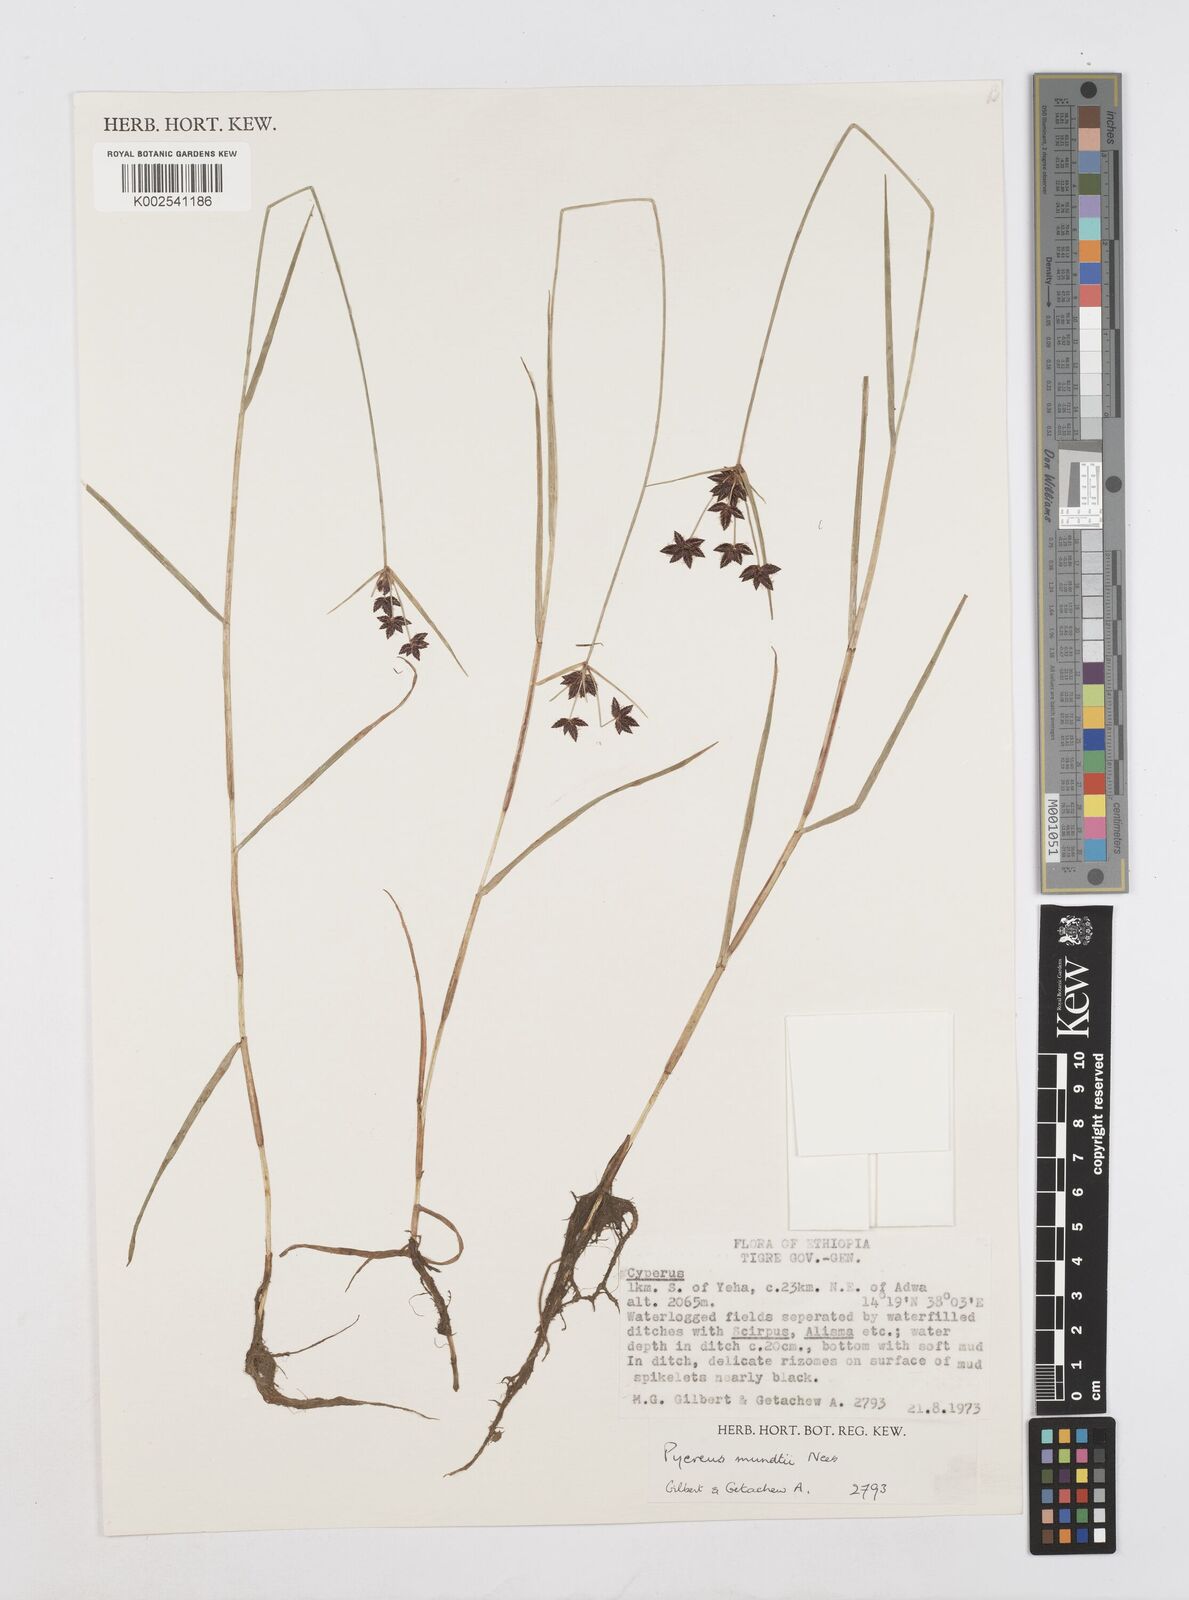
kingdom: Plantae
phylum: Tracheophyta
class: Liliopsida
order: Poales
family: Cyperaceae
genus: Cyperus
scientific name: Cyperus mundii
